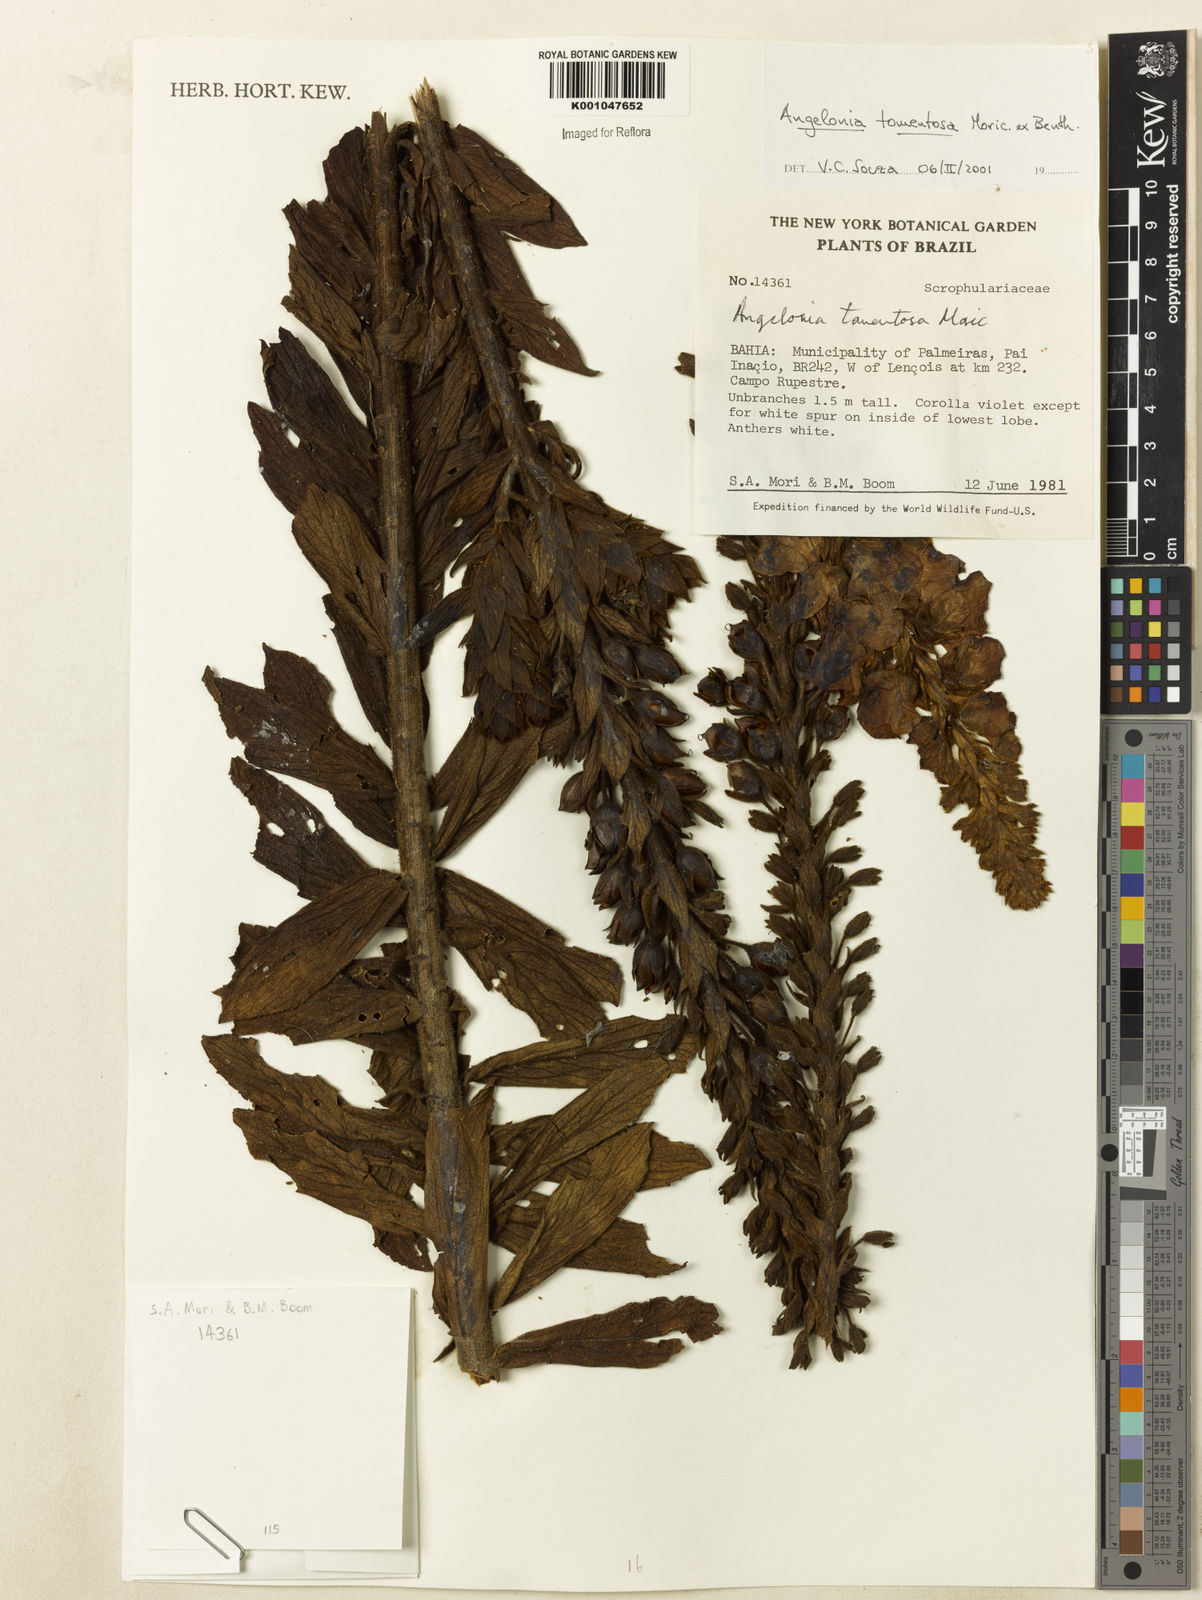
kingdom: Plantae
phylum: Tracheophyta
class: Magnoliopsida
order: Lamiales
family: Plantaginaceae
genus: Angelonia
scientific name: Angelonia tomentosa
